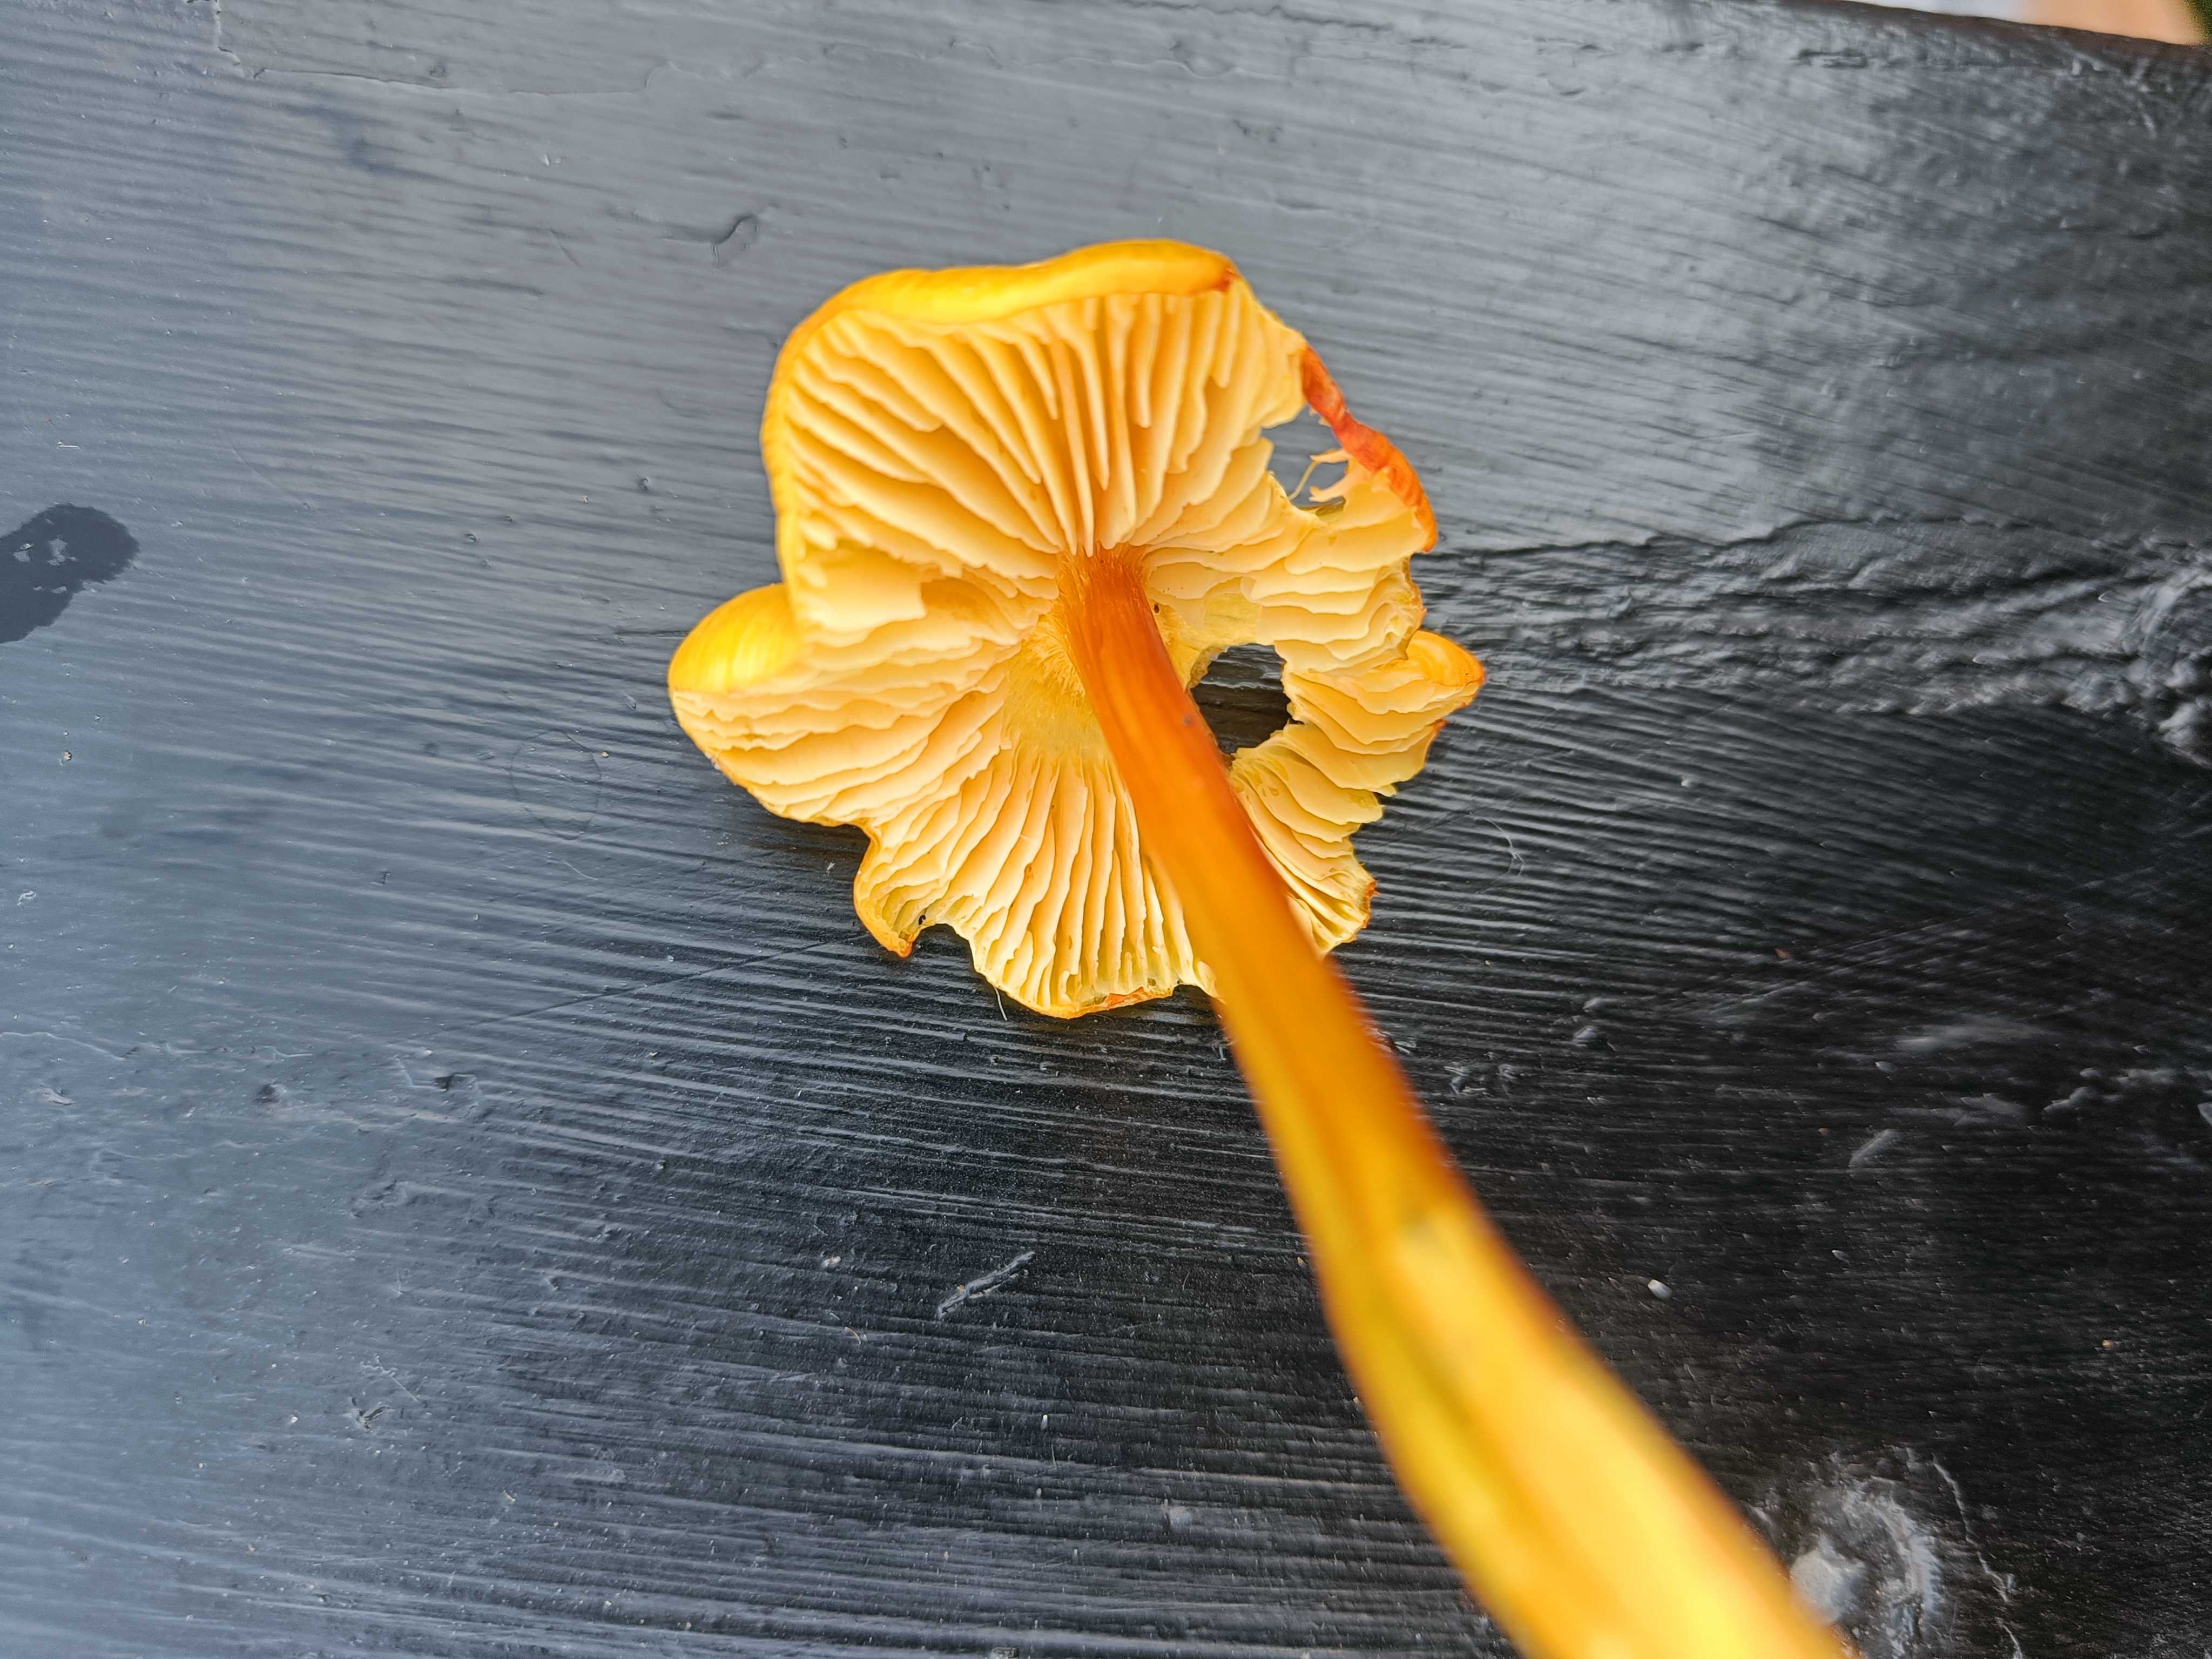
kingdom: Fungi
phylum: Basidiomycota
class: Agaricomycetes
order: Agaricales
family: Hygrophoraceae
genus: Hygrocybe
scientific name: Hygrocybe
